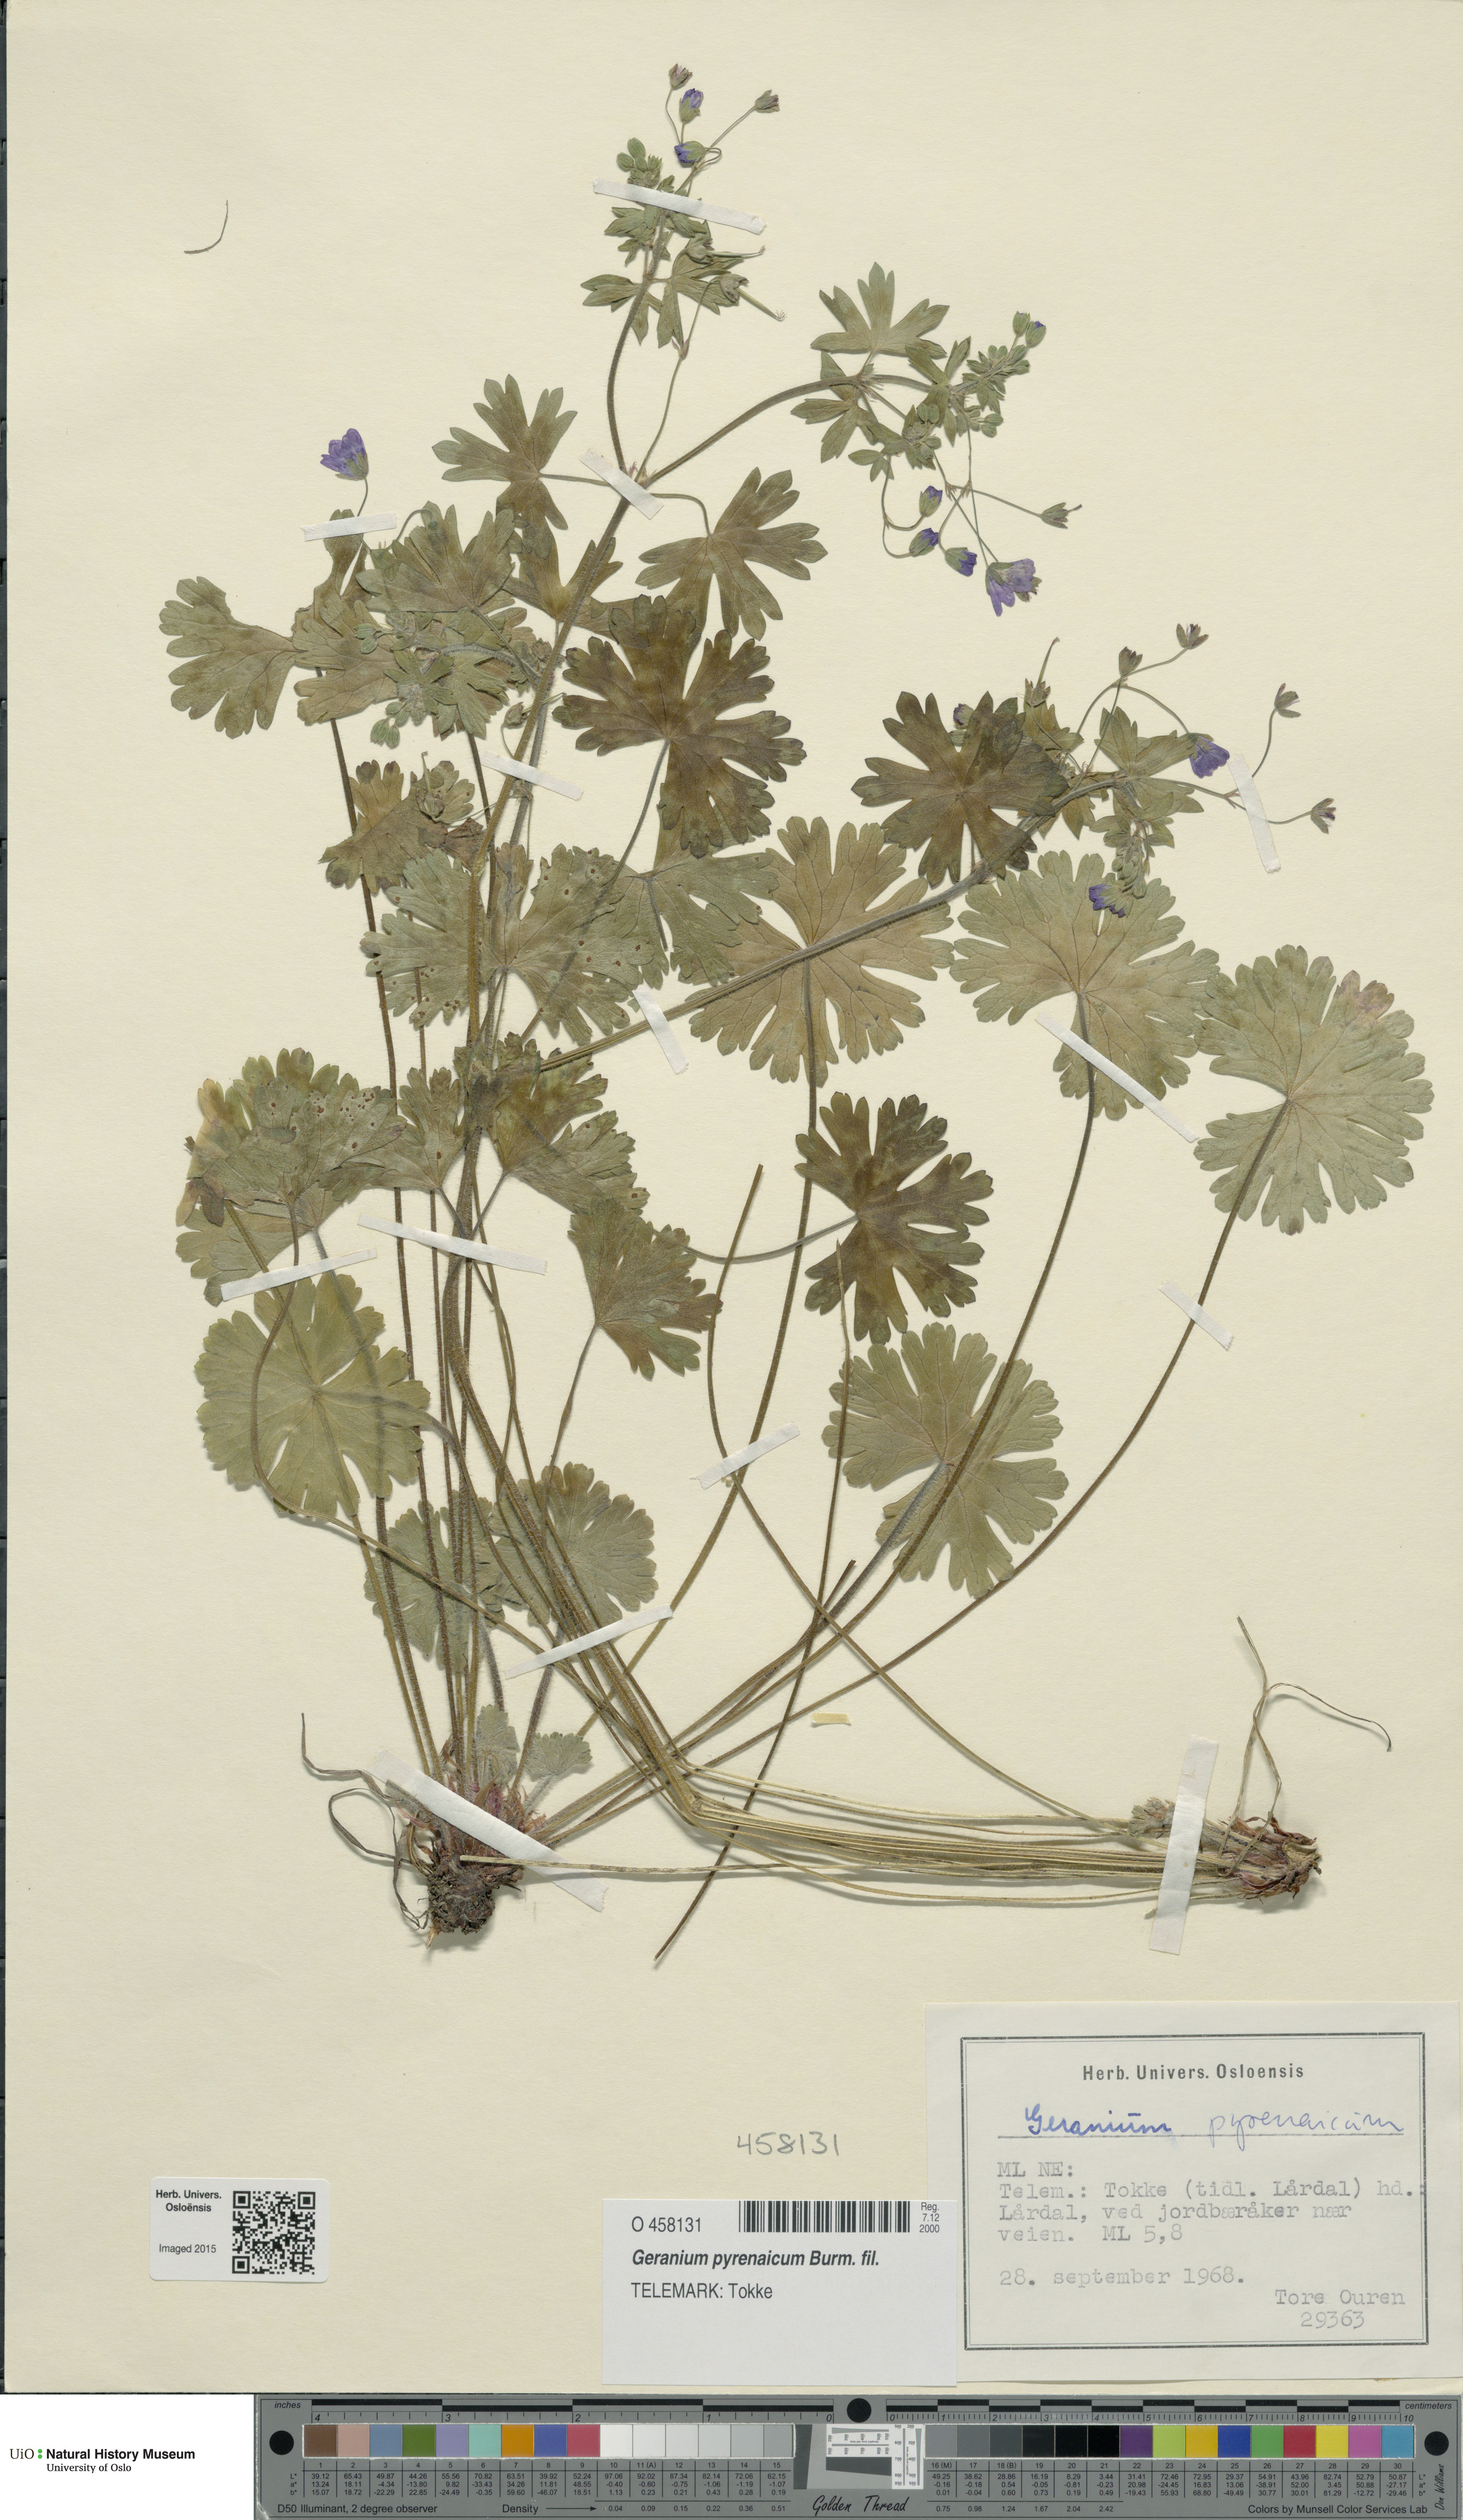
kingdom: Plantae
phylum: Tracheophyta
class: Magnoliopsida
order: Geraniales
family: Geraniaceae
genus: Geranium
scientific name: Geranium pyrenaicum
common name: Hedgerow crane's-bill
